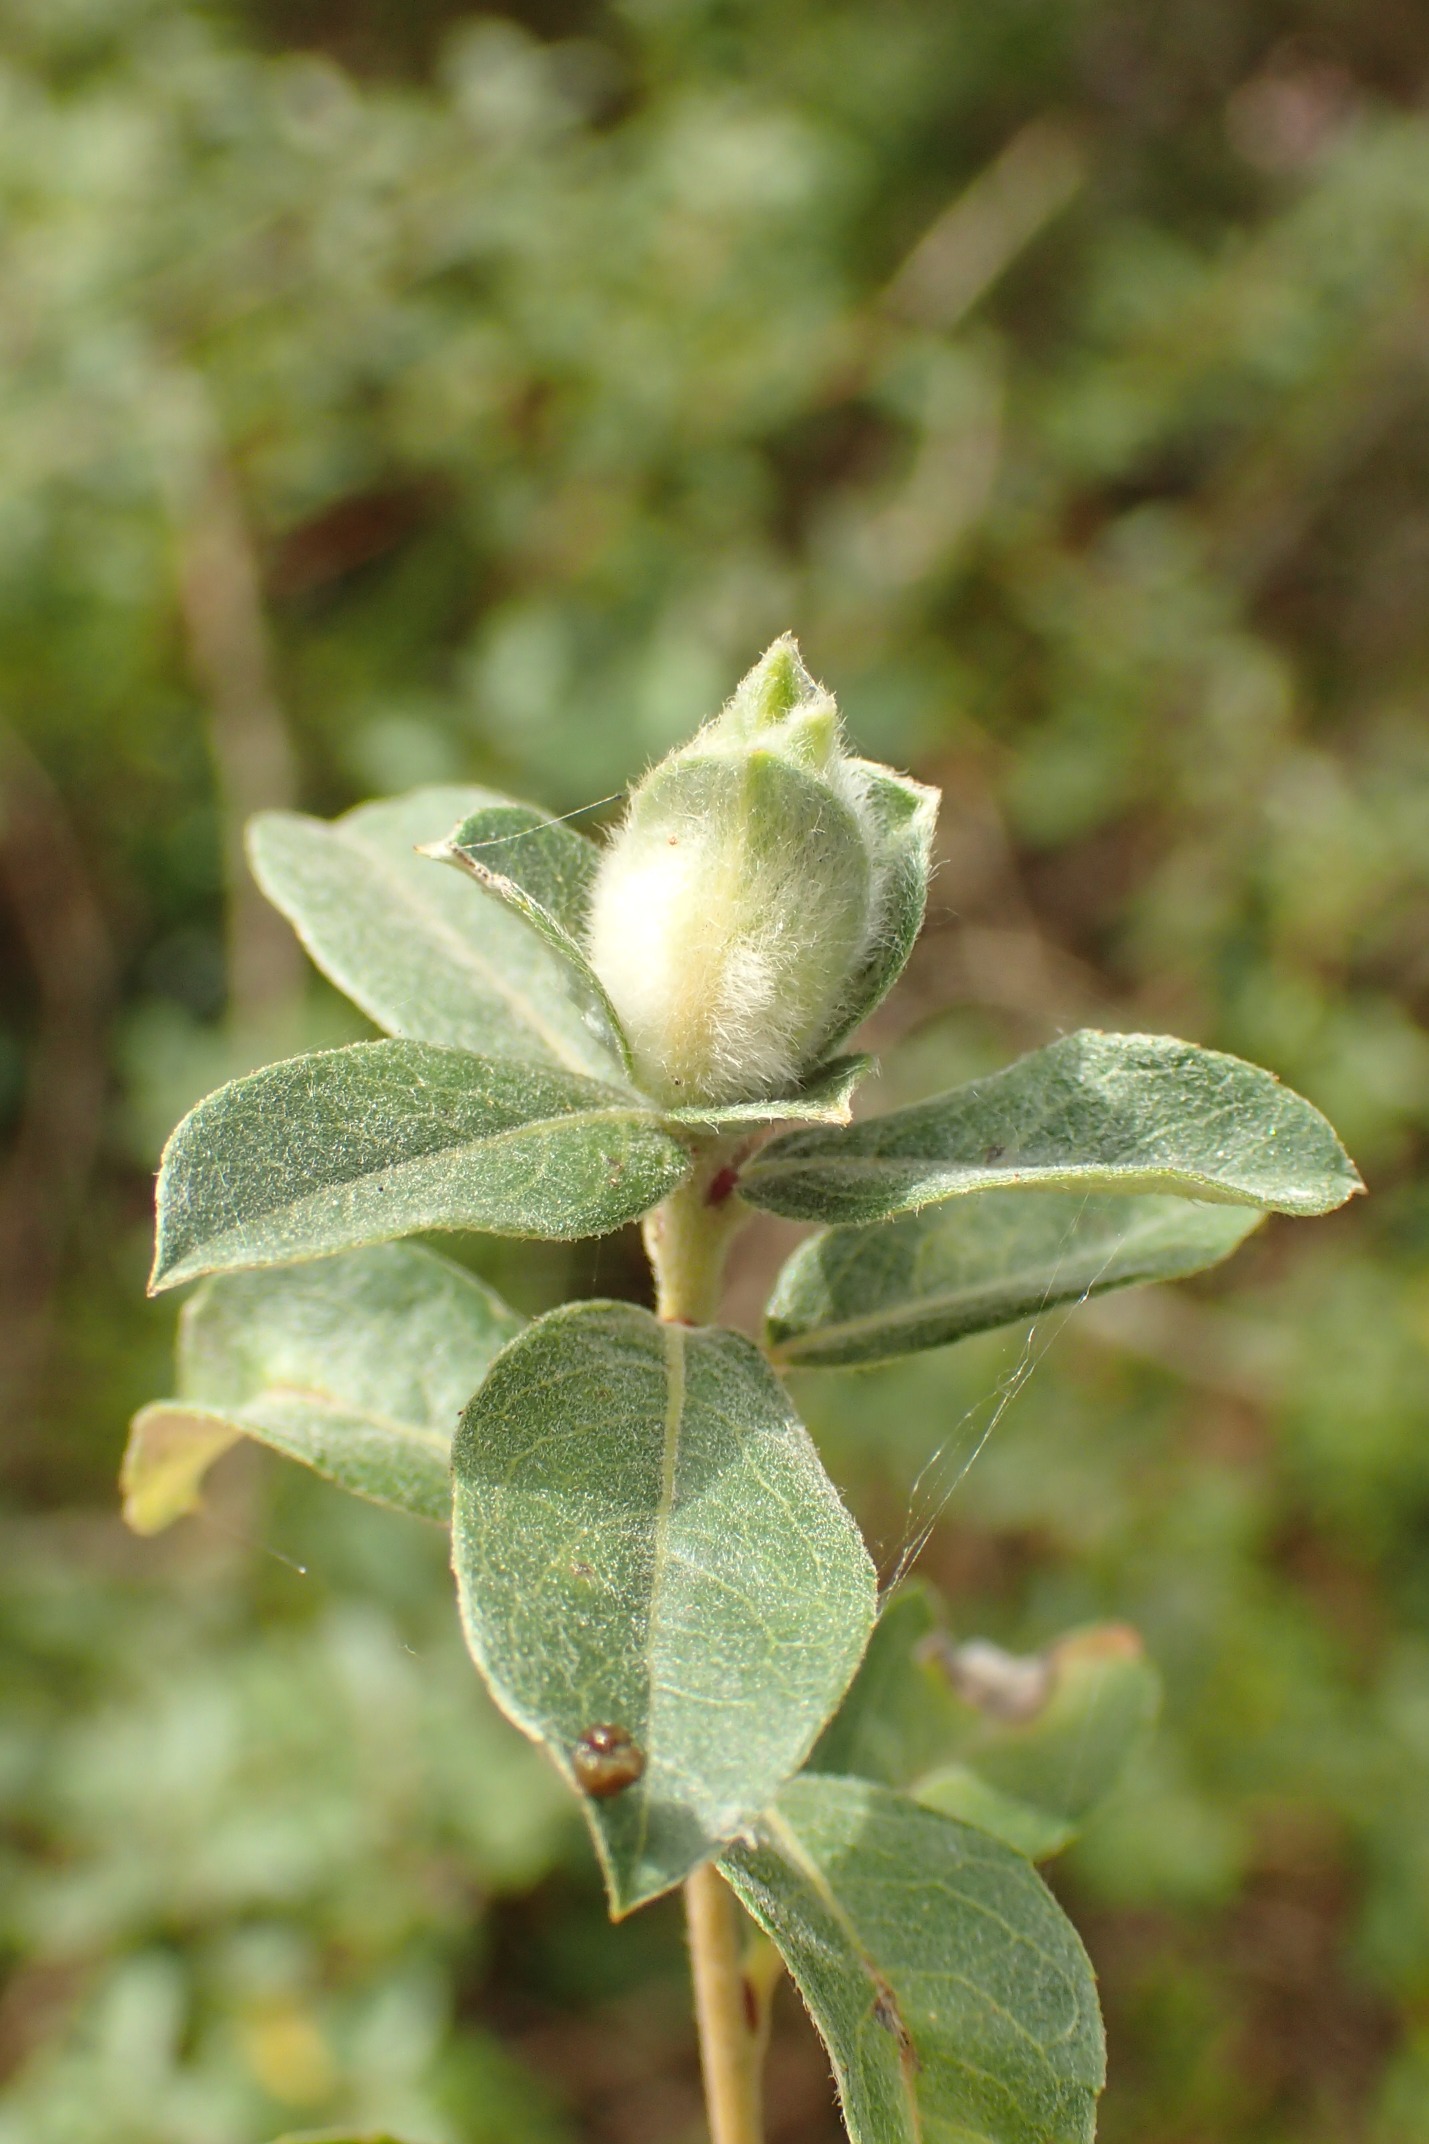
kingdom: Animalia
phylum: Arthropoda
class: Insecta
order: Diptera
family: Cecidomyiidae
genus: Rabdophaga
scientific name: Rabdophaga jaapi
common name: Krybpilegalmyg
